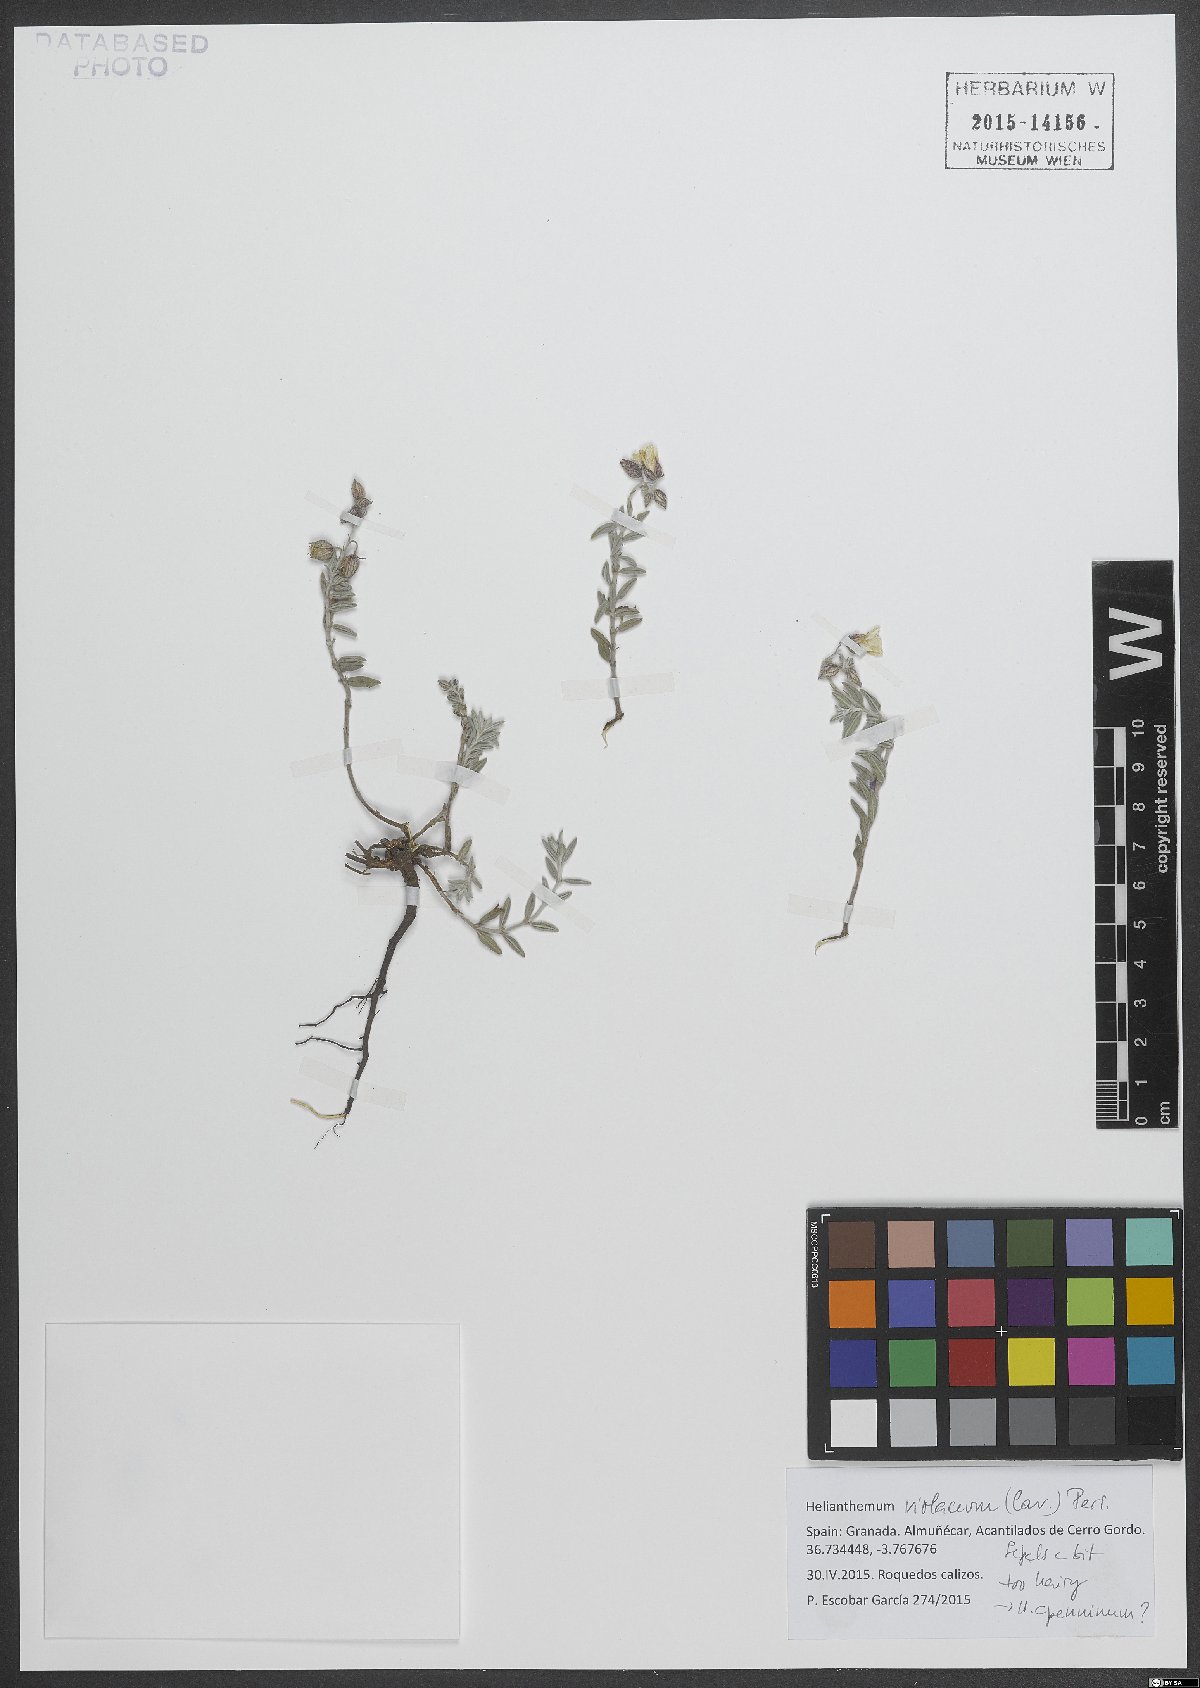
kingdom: Plantae
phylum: Tracheophyta
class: Magnoliopsida
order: Malvales
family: Cistaceae
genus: Helianthemum
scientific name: Helianthemum violaceum
